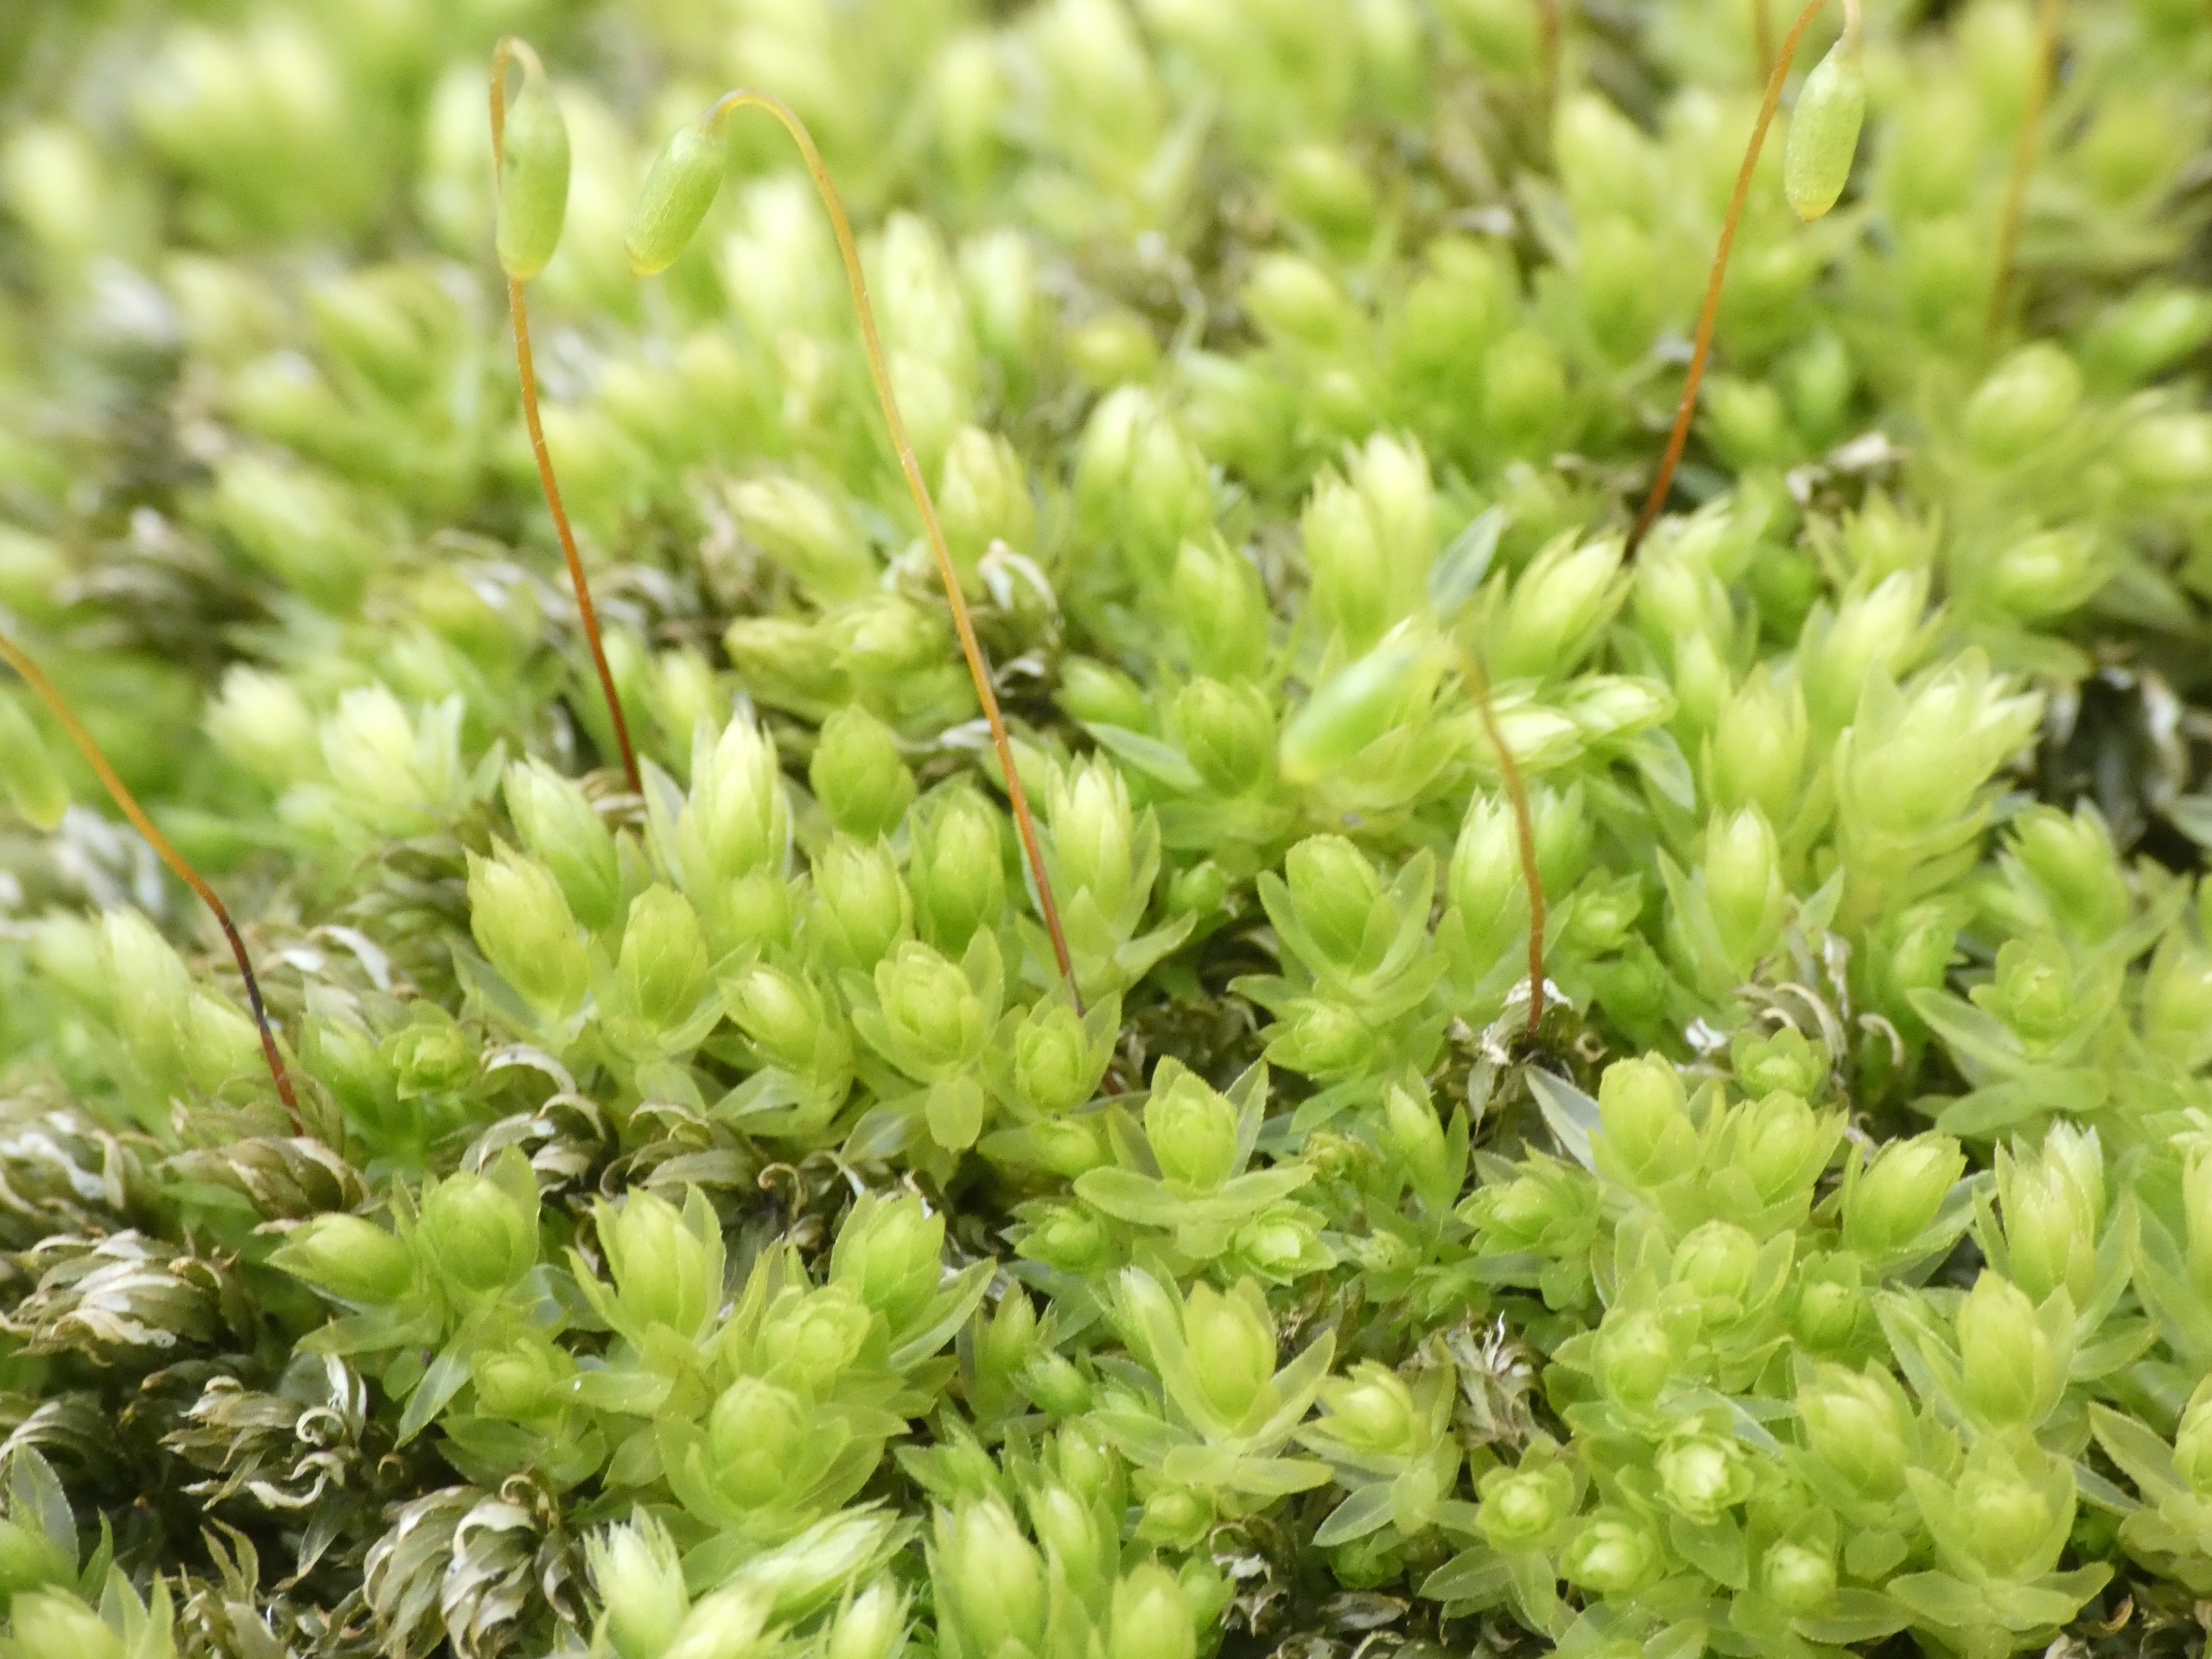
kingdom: Plantae
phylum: Bryophyta
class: Bryopsida
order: Bryales
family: Mniaceae
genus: Mnium
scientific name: Mnium hornum
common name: Brunfiltet stjernemos
